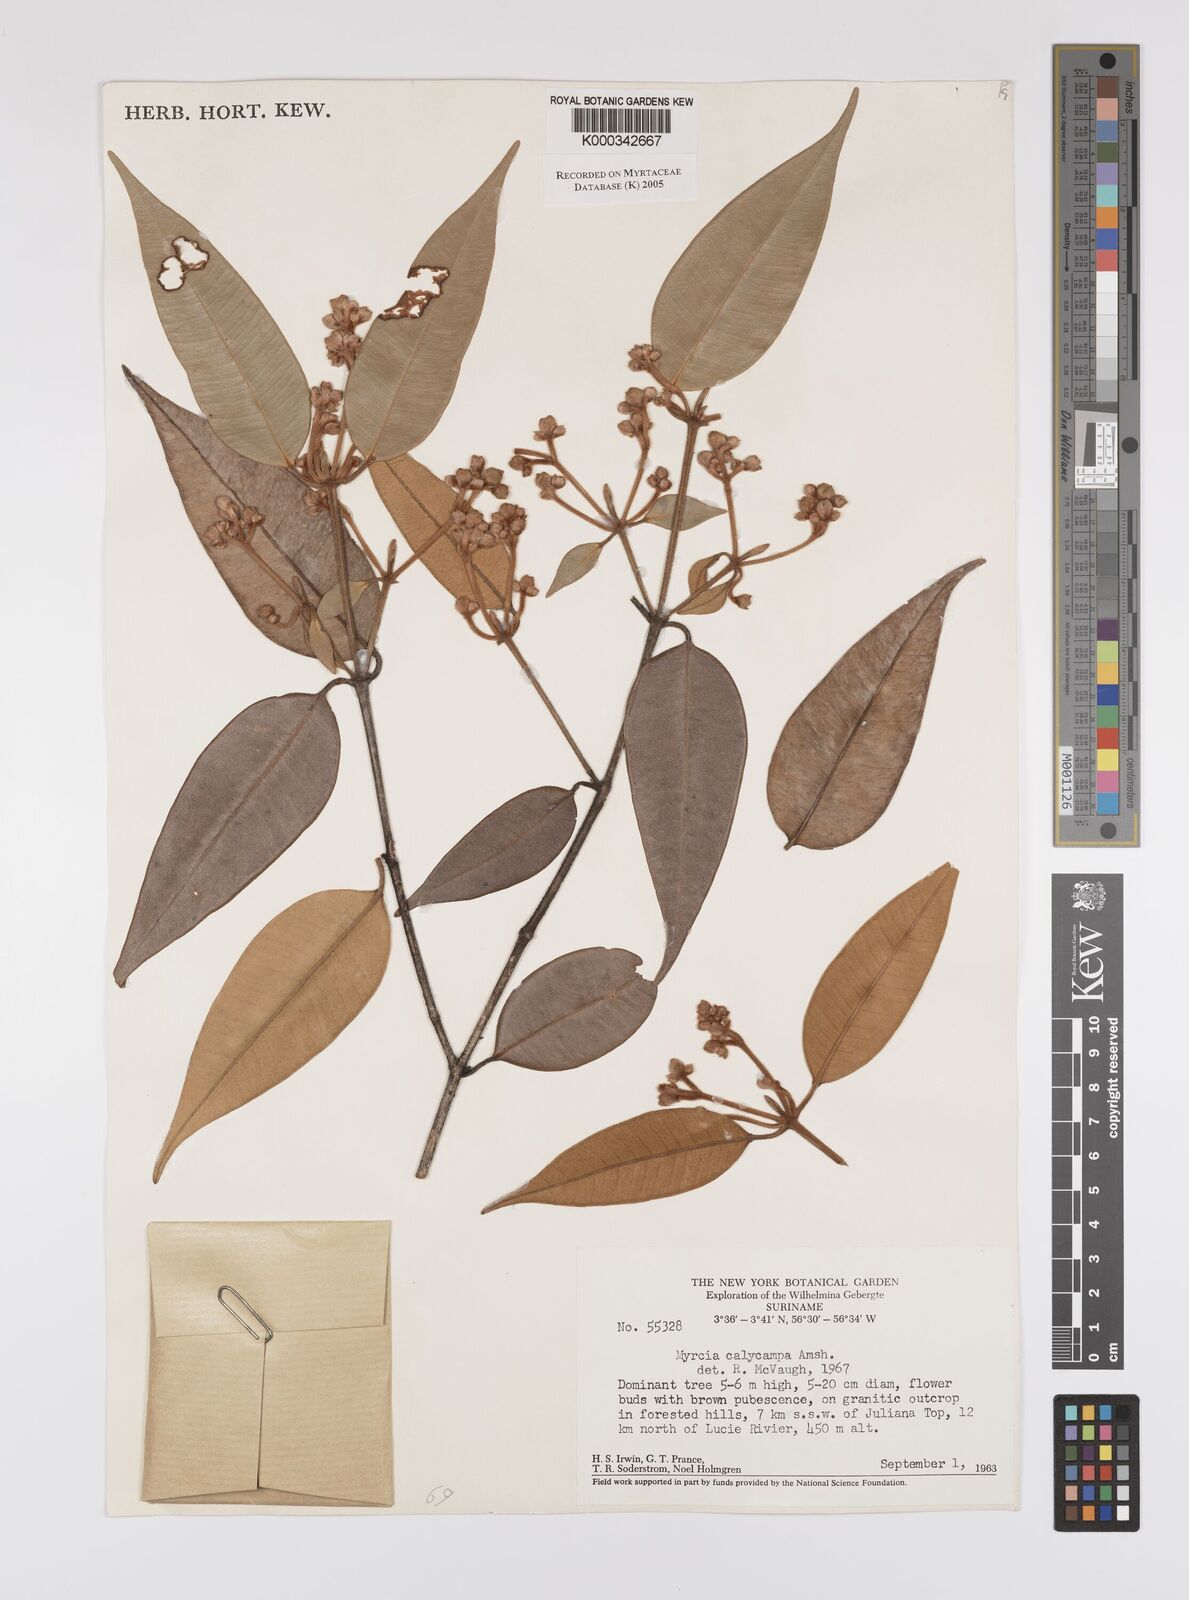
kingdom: Plantae
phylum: Tracheophyta
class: Magnoliopsida
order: Myrtales
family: Myrtaceae
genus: Myrcia
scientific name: Myrcia calycampa
